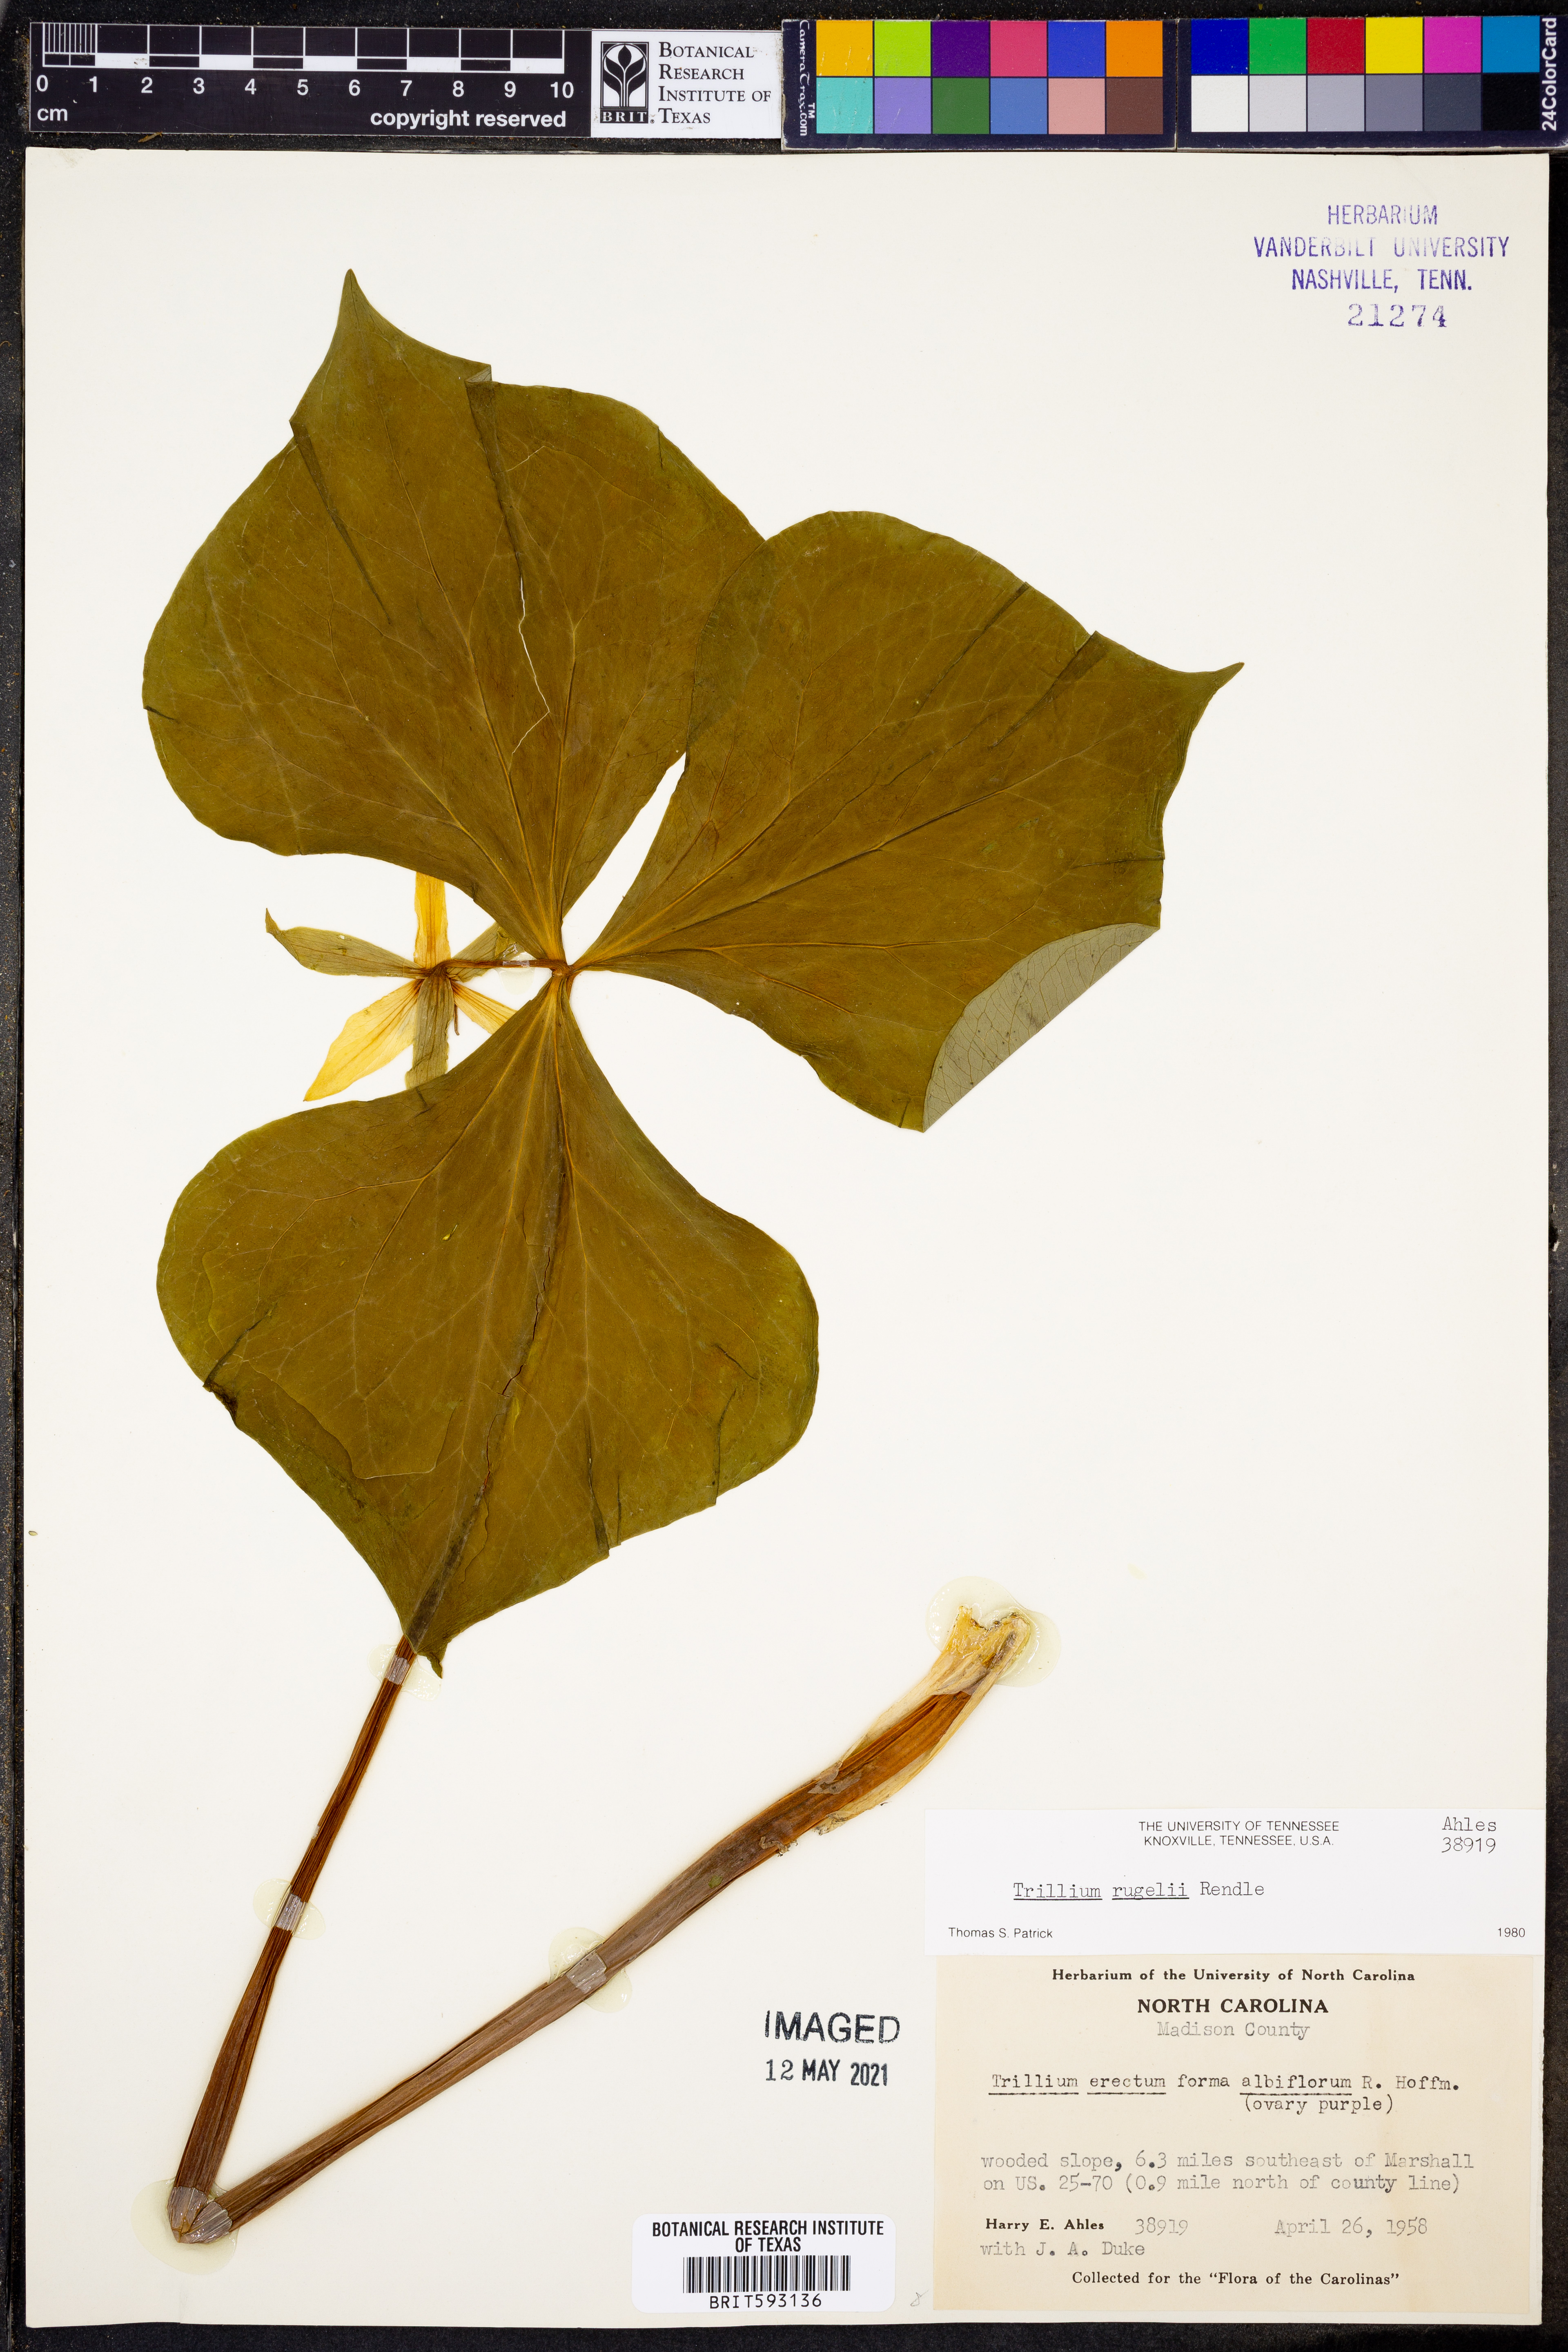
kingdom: Plantae
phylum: Tracheophyta
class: Liliopsida
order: Liliales
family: Melanthiaceae
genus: Trillium
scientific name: Trillium rugelii
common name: Ill-scented trillium
